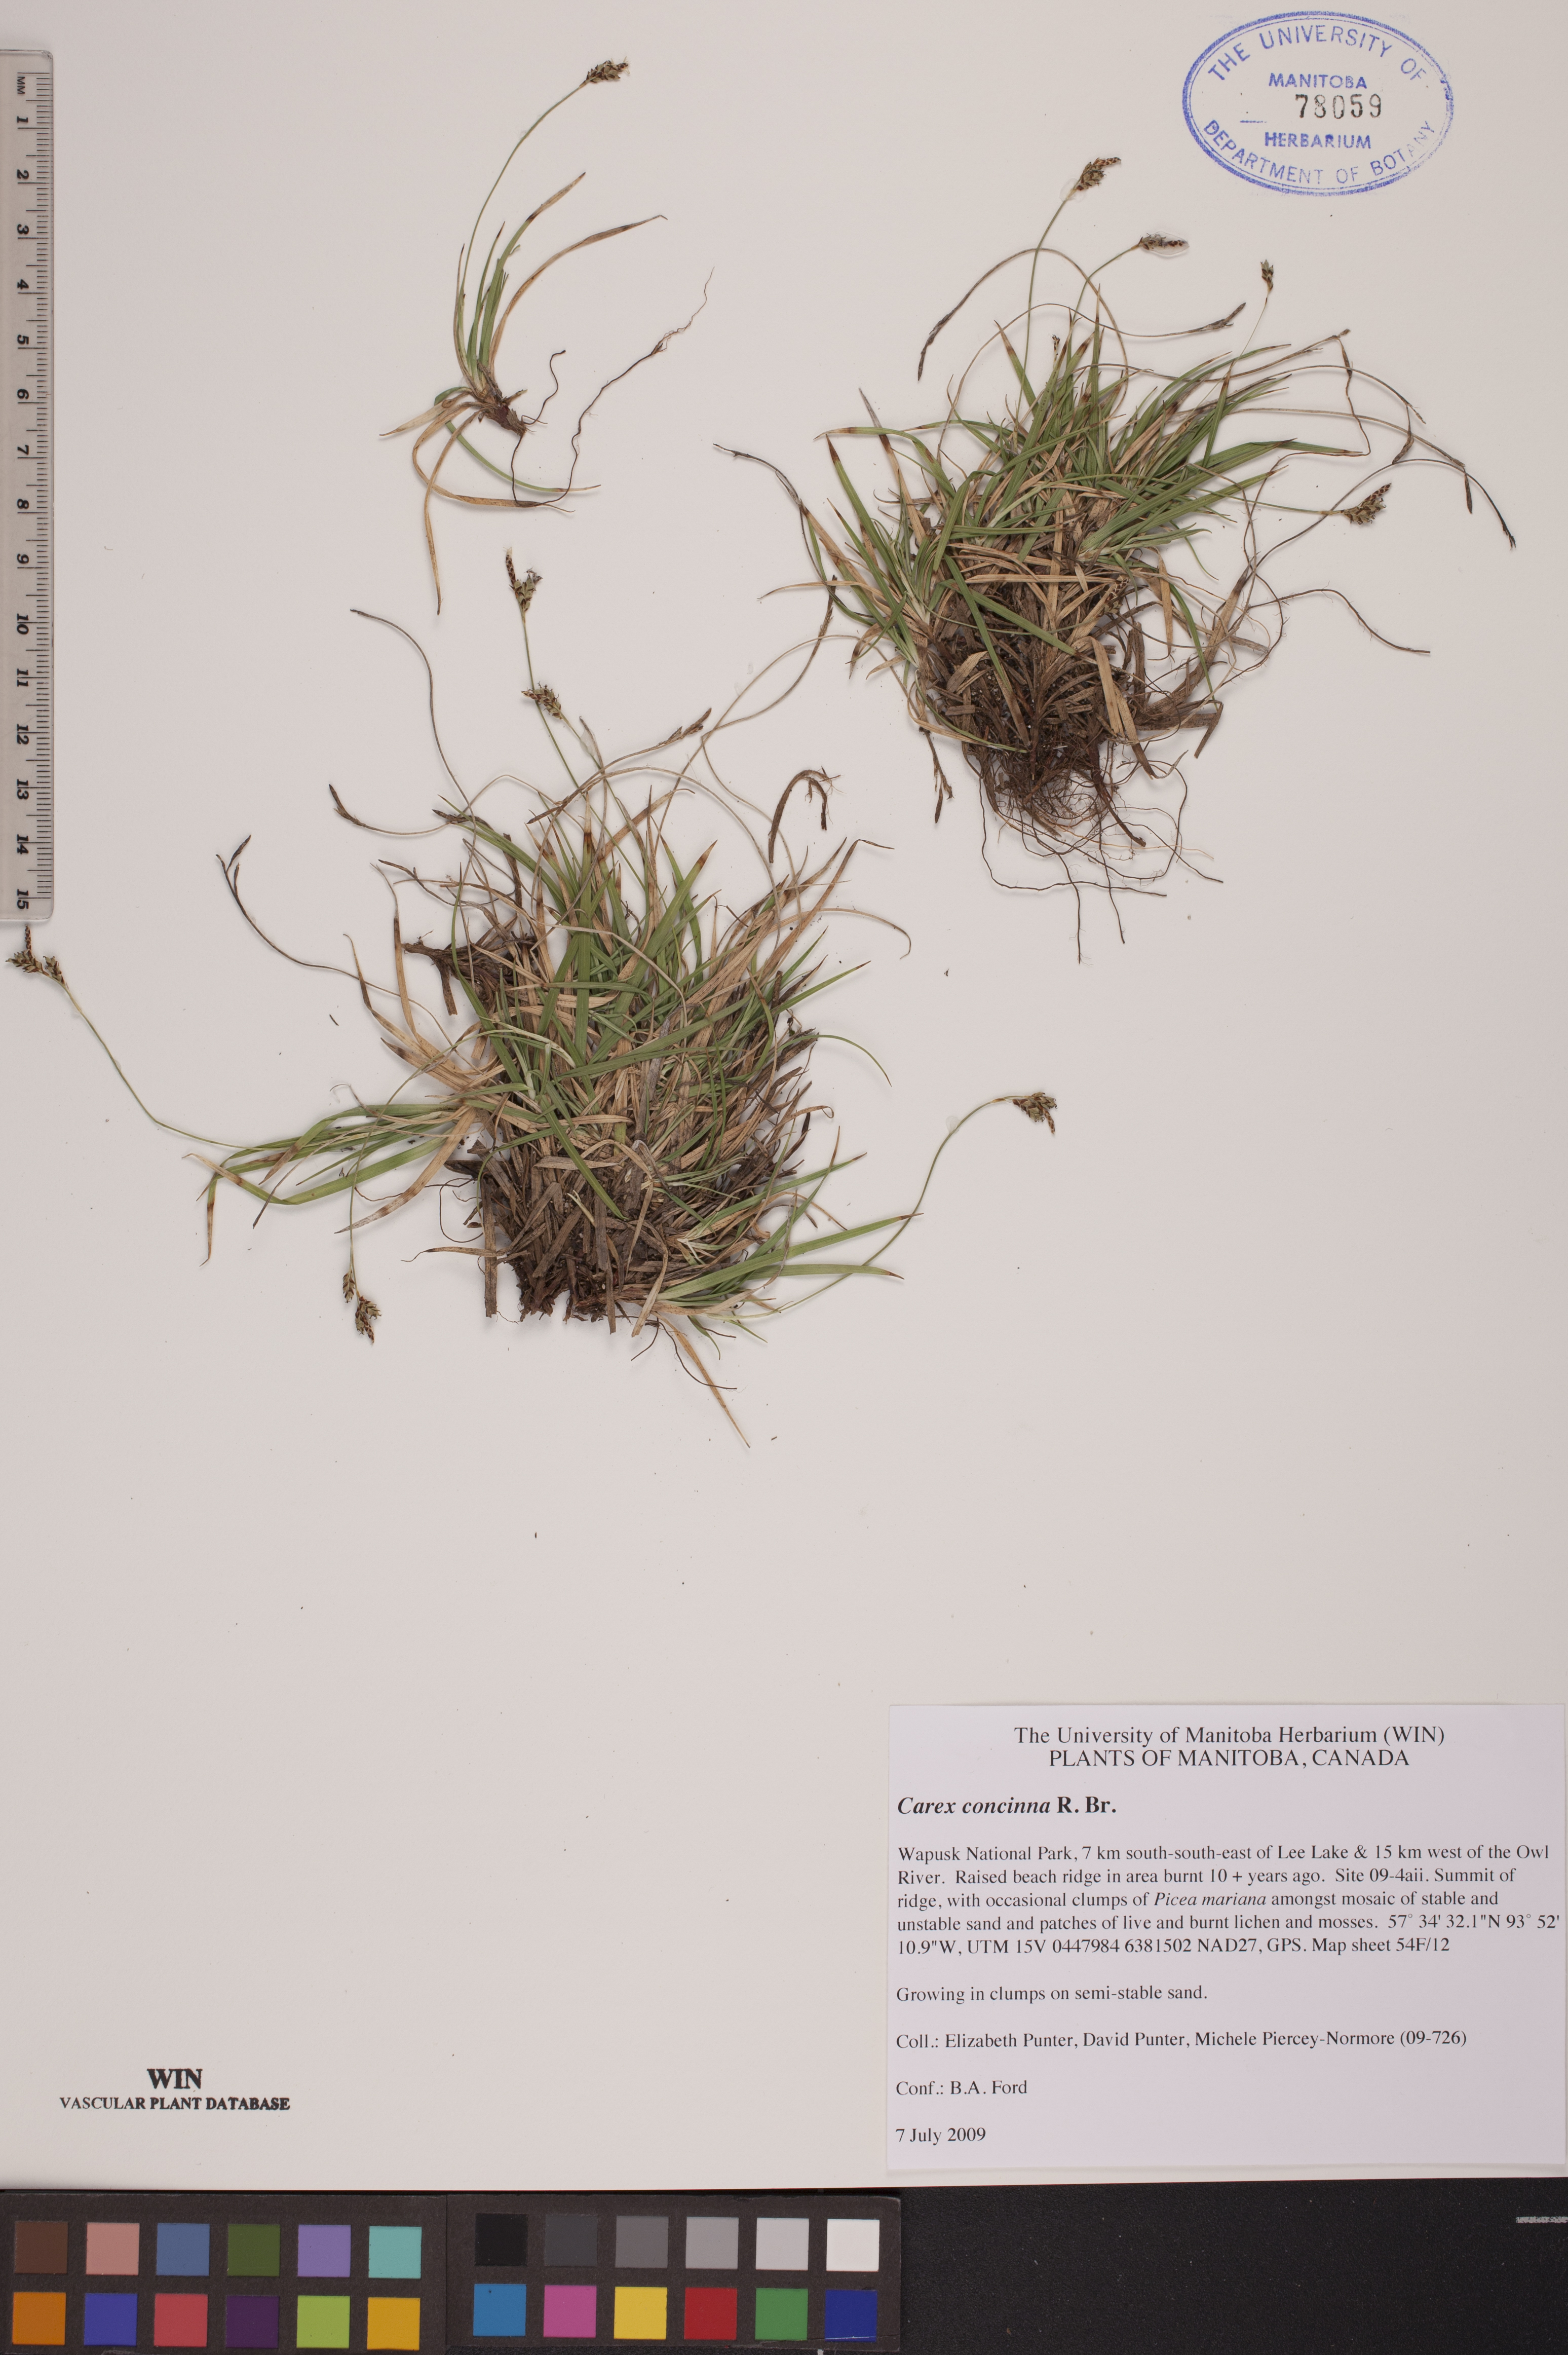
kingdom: Plantae
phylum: Tracheophyta
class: Liliopsida
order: Poales
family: Cyperaceae
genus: Carex
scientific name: Carex concinna
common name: Beautiful sedge
